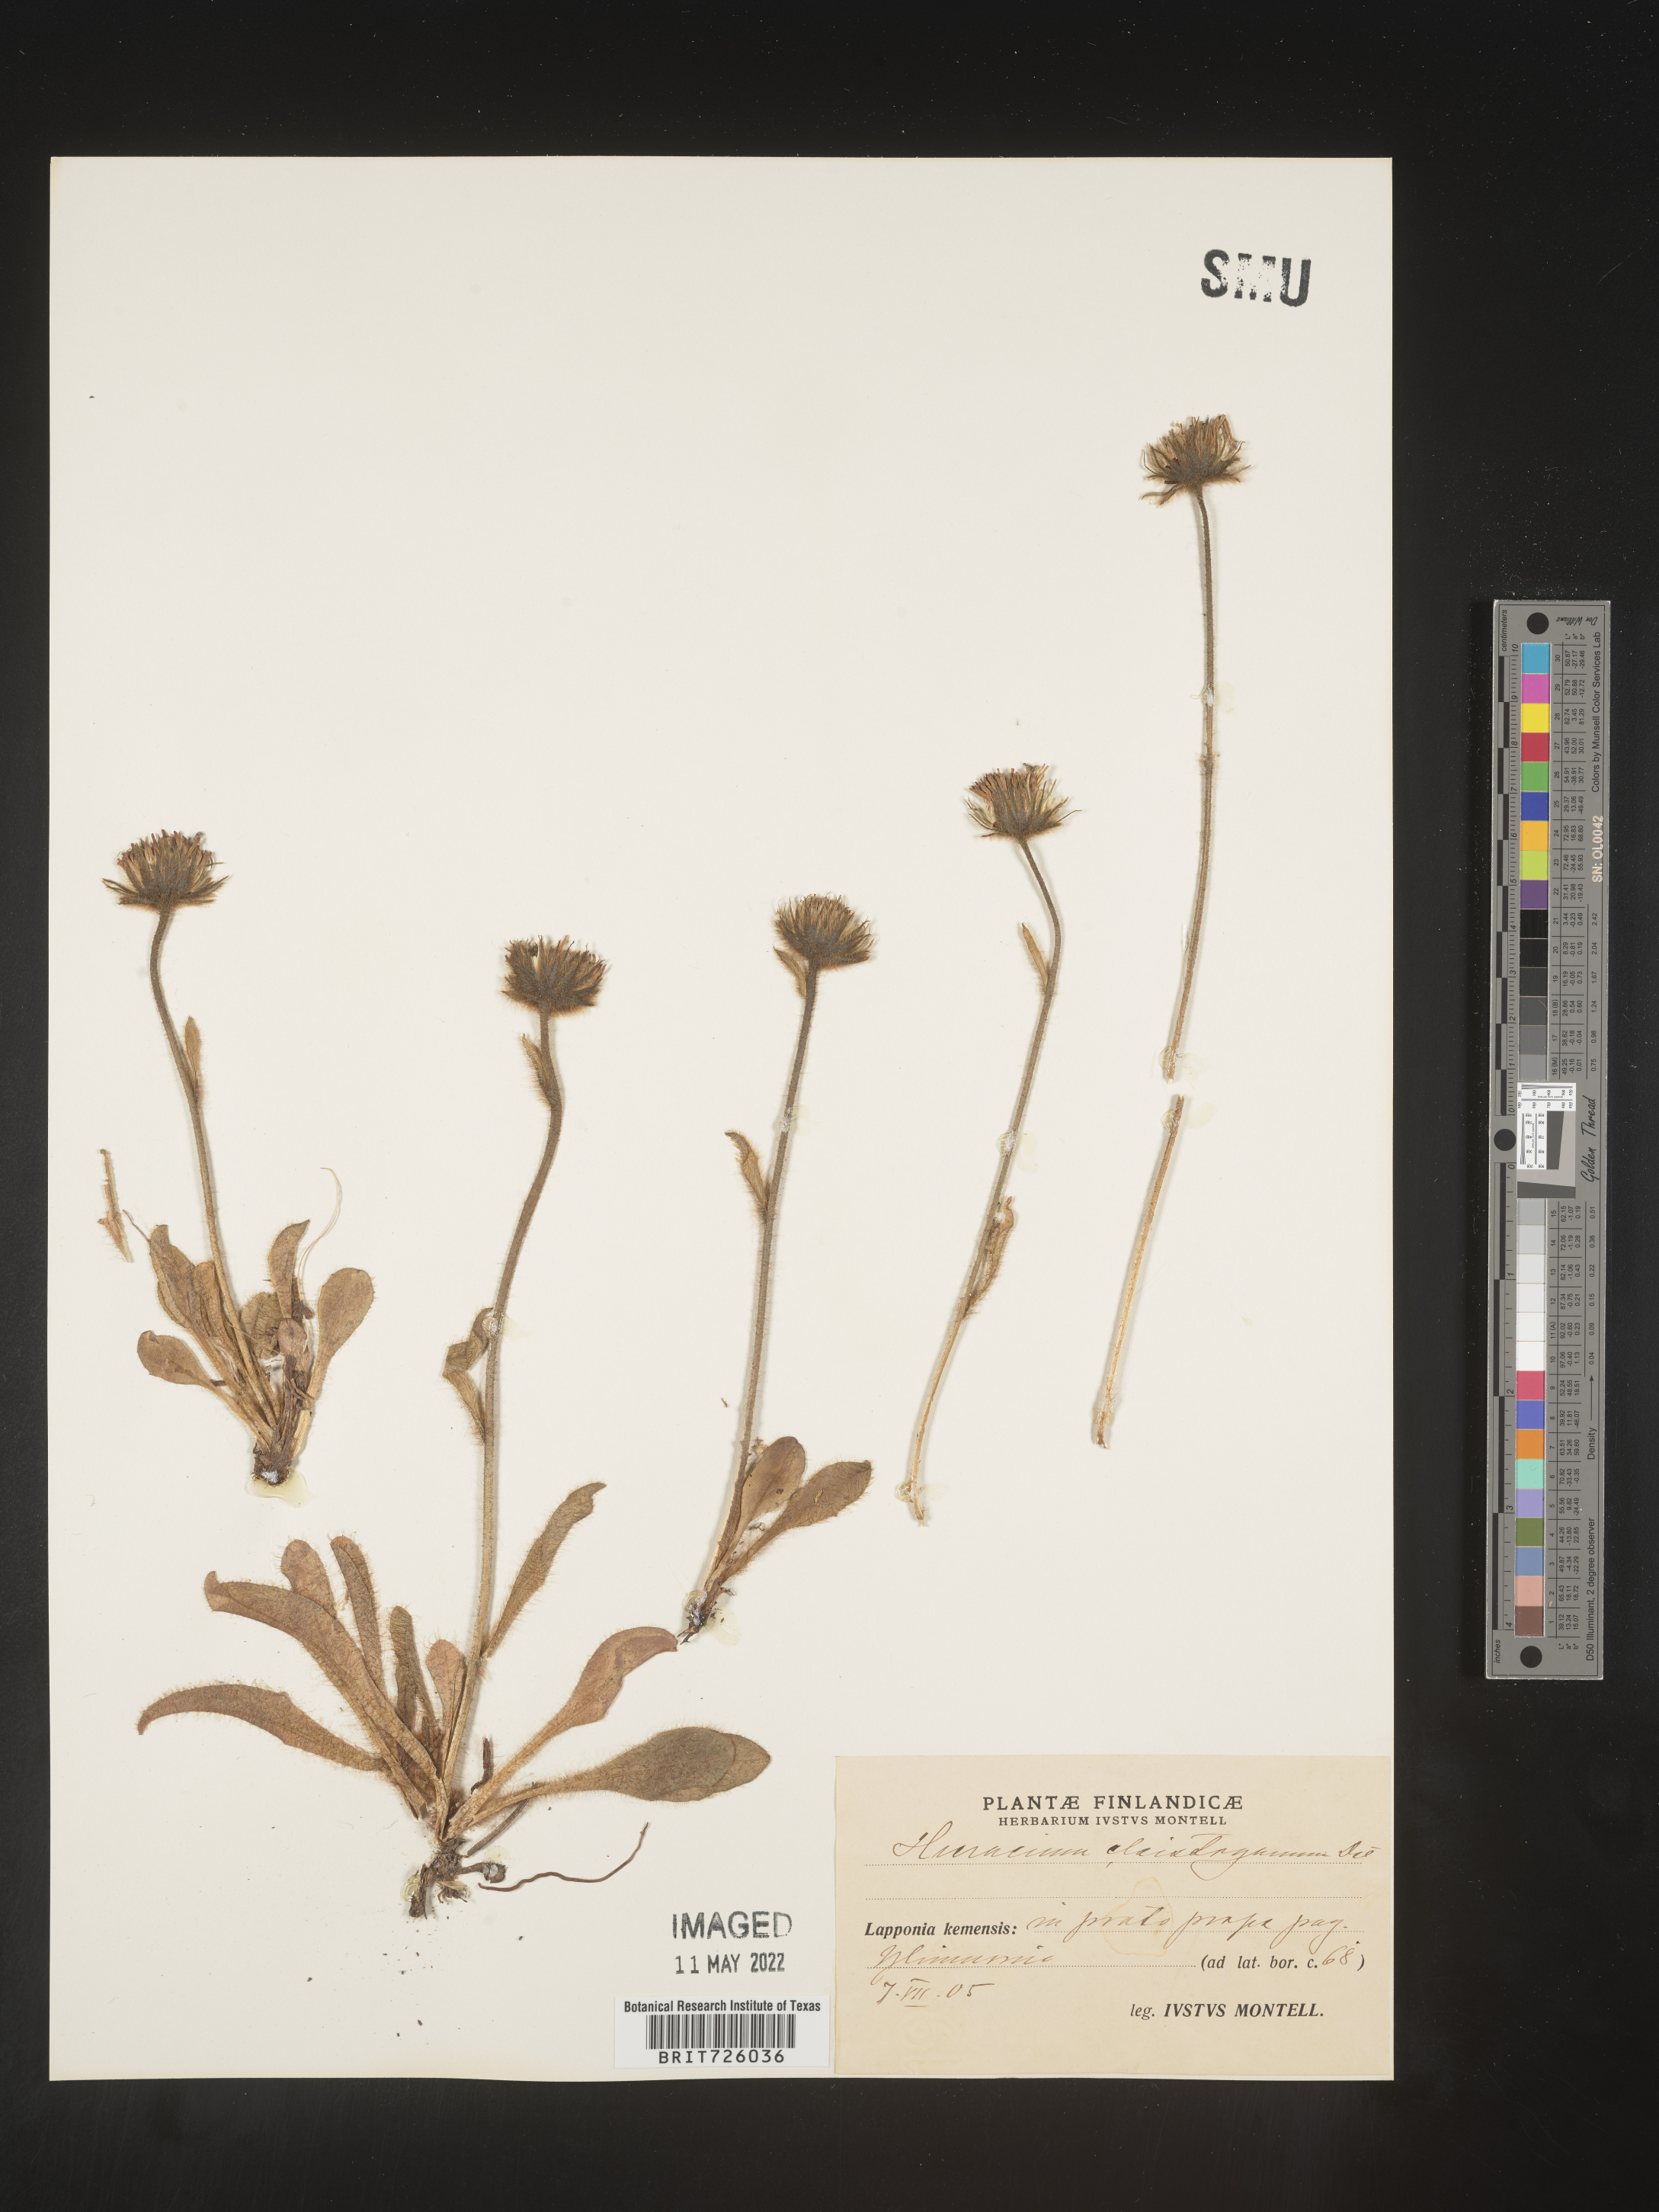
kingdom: Plantae
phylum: Tracheophyta
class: Magnoliopsida
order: Asterales
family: Asteraceae
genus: Hieracium
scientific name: Hieracium
